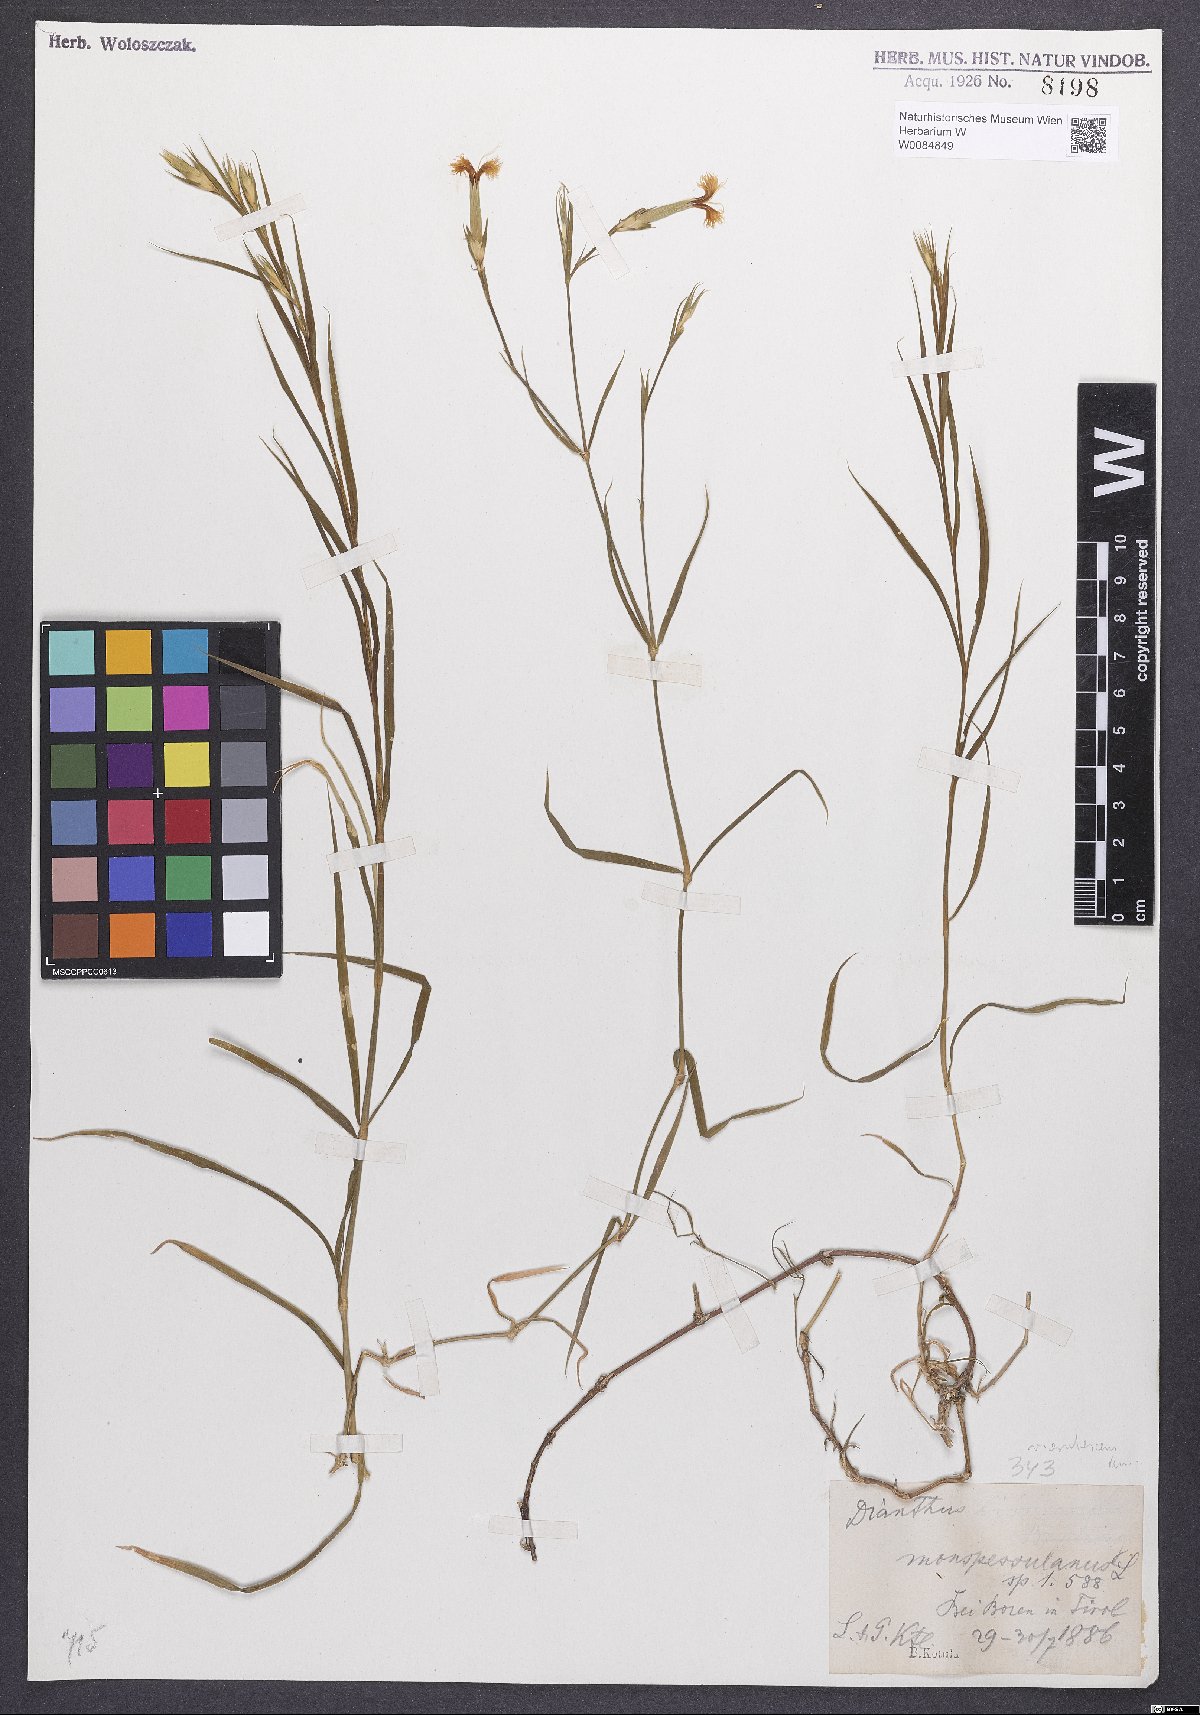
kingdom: Plantae
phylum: Tracheophyta
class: Magnoliopsida
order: Caryophyllales
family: Caryophyllaceae
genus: Dianthus
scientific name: Dianthus hyssopifolius
